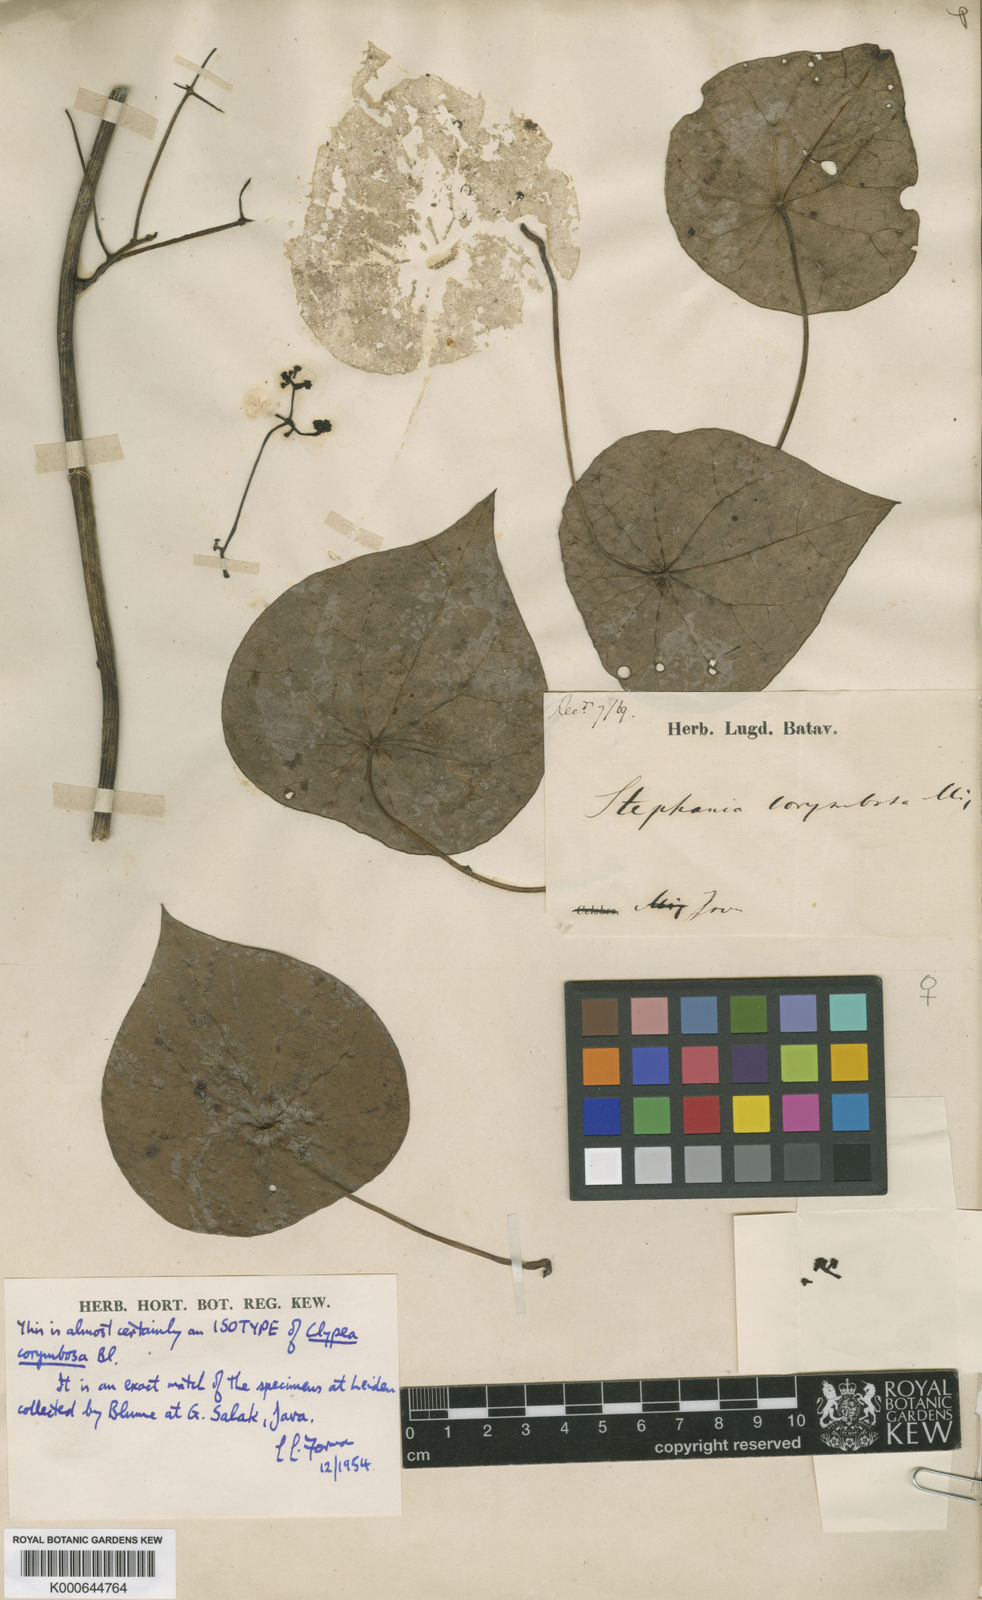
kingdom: Plantae
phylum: Tracheophyta
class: Magnoliopsida
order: Ranunculales
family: Menispermaceae
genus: Stephania
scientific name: Stephania corymbosa
